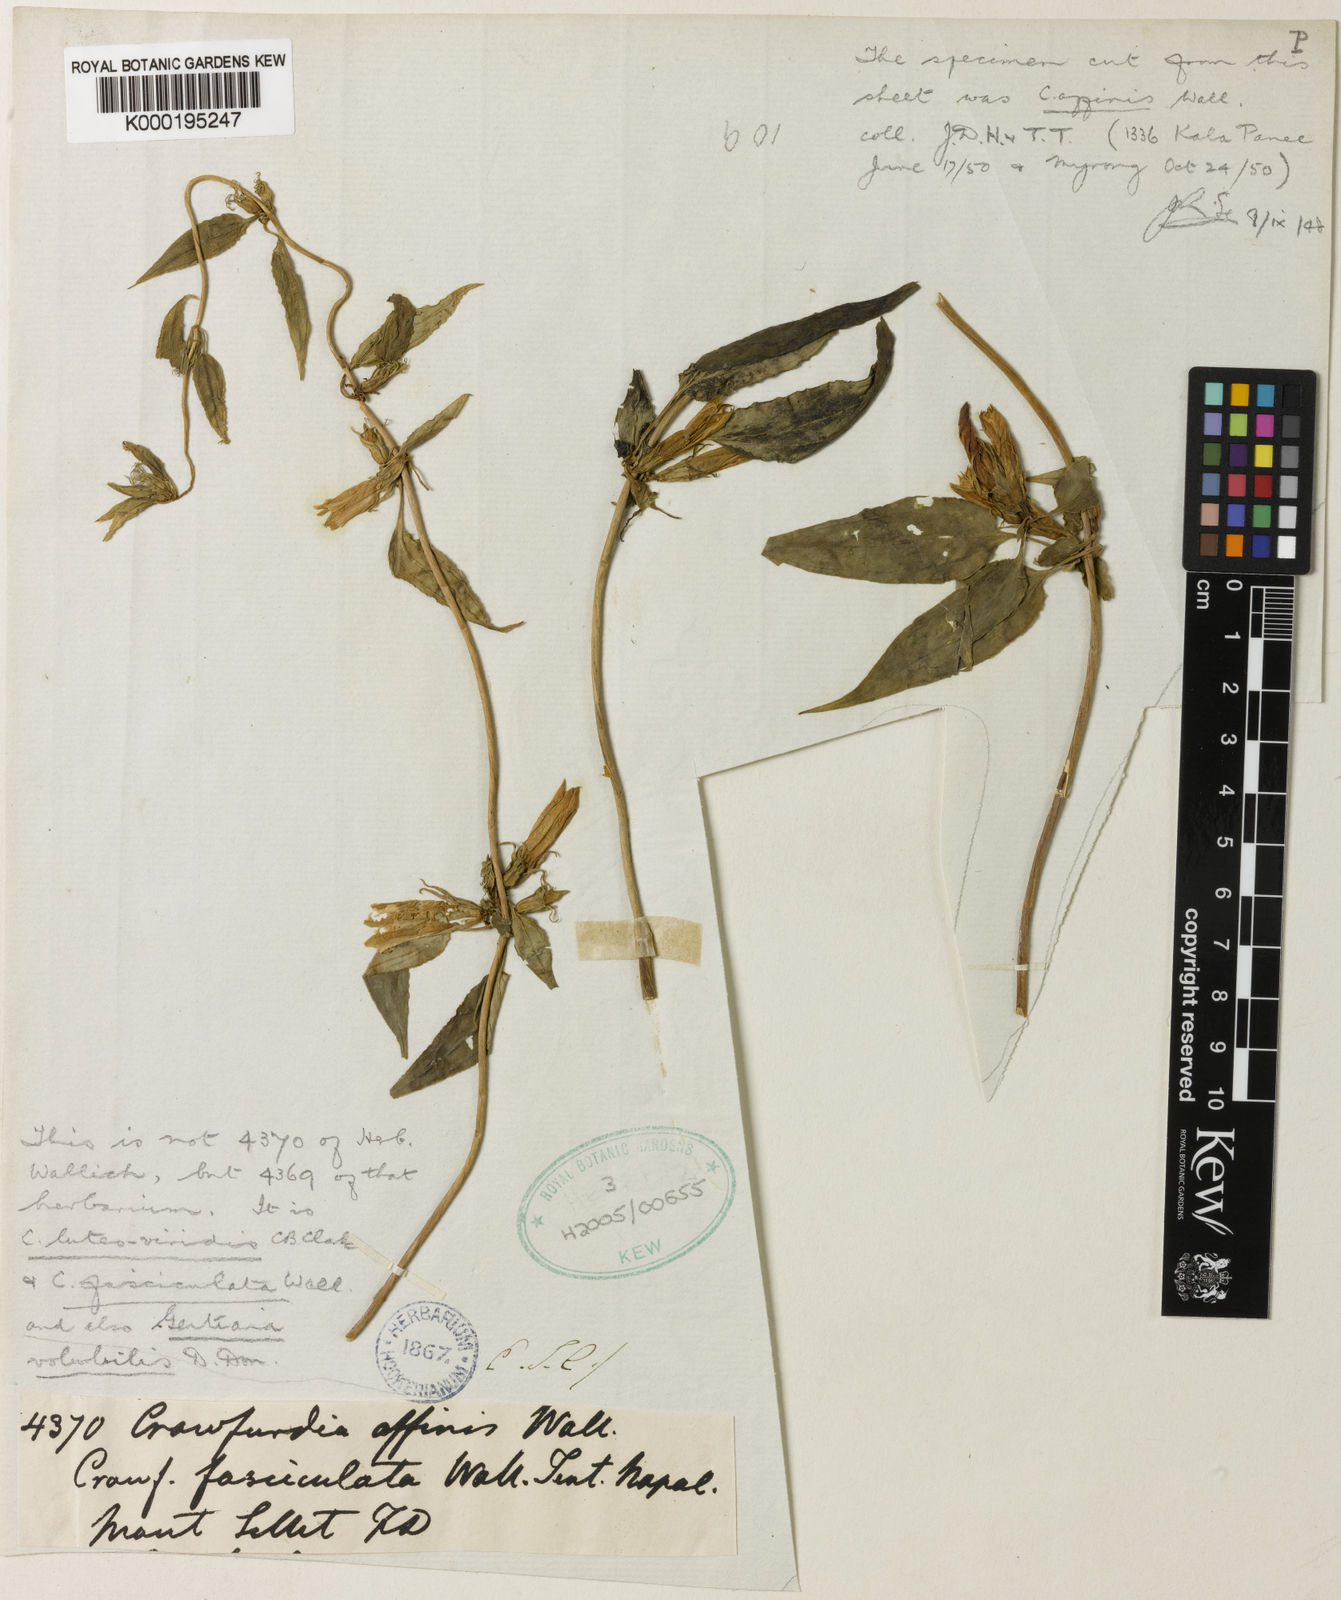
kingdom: Plantae
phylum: Tracheophyta
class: Magnoliopsida
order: Gentianales
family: Gentianaceae
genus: Tripterospermum
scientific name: Tripterospermum fasciculatum
